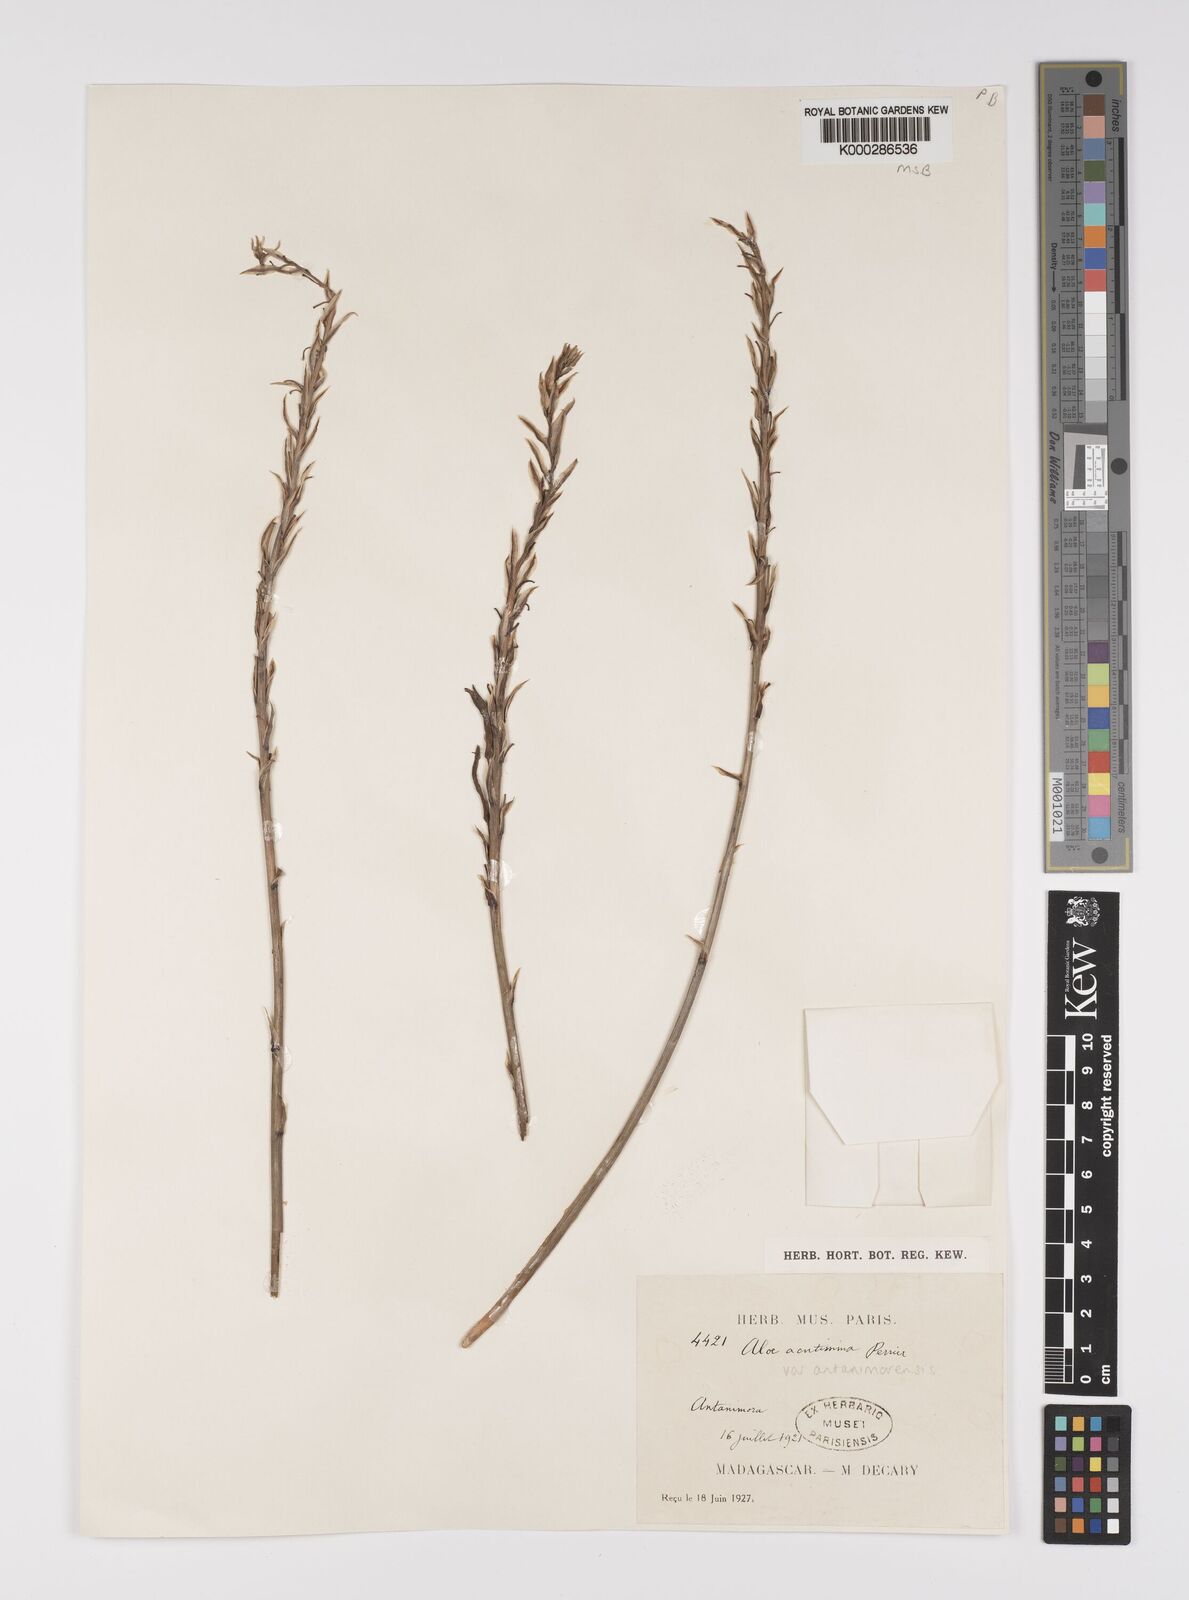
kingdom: Plantae
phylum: Tracheophyta
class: Liliopsida
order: Asparagales
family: Asphodelaceae
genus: Aloe
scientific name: Aloe
